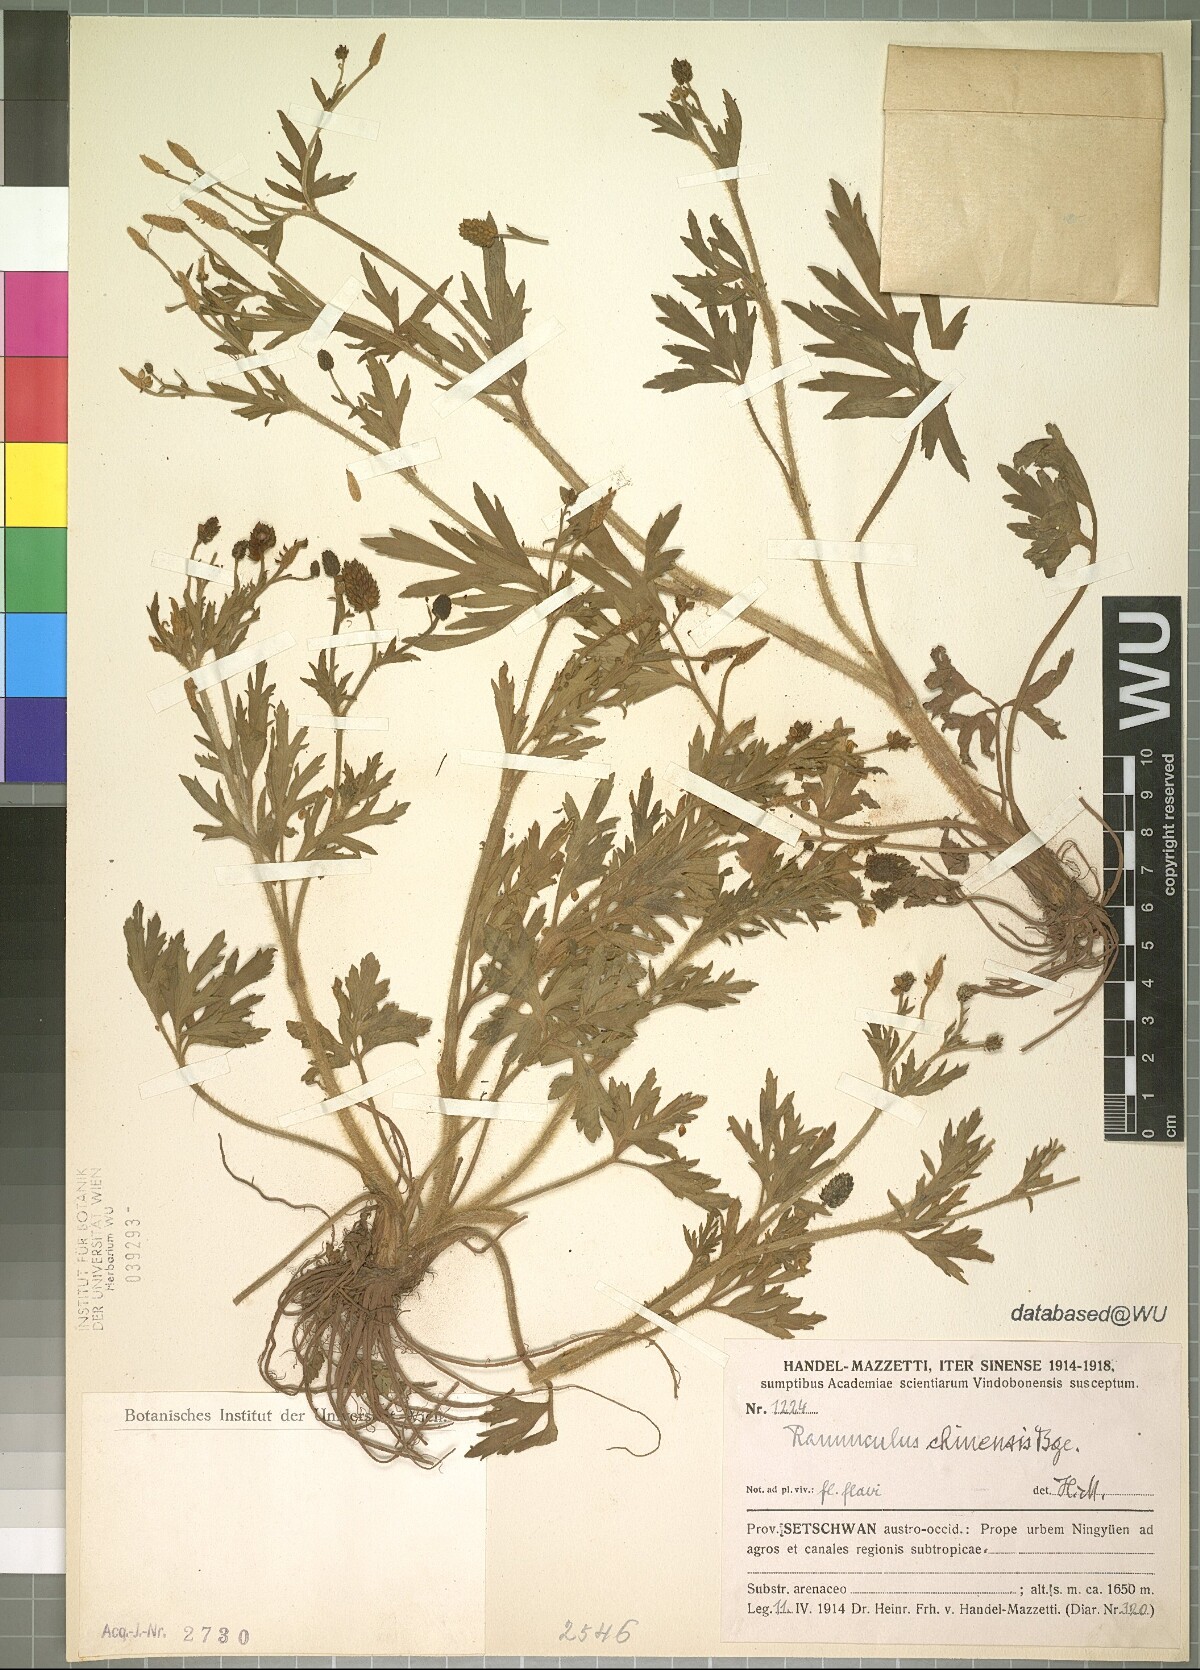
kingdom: Plantae
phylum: Tracheophyta
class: Magnoliopsida
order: Ranunculales
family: Ranunculaceae
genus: Ranunculus
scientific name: Ranunculus chinensis
